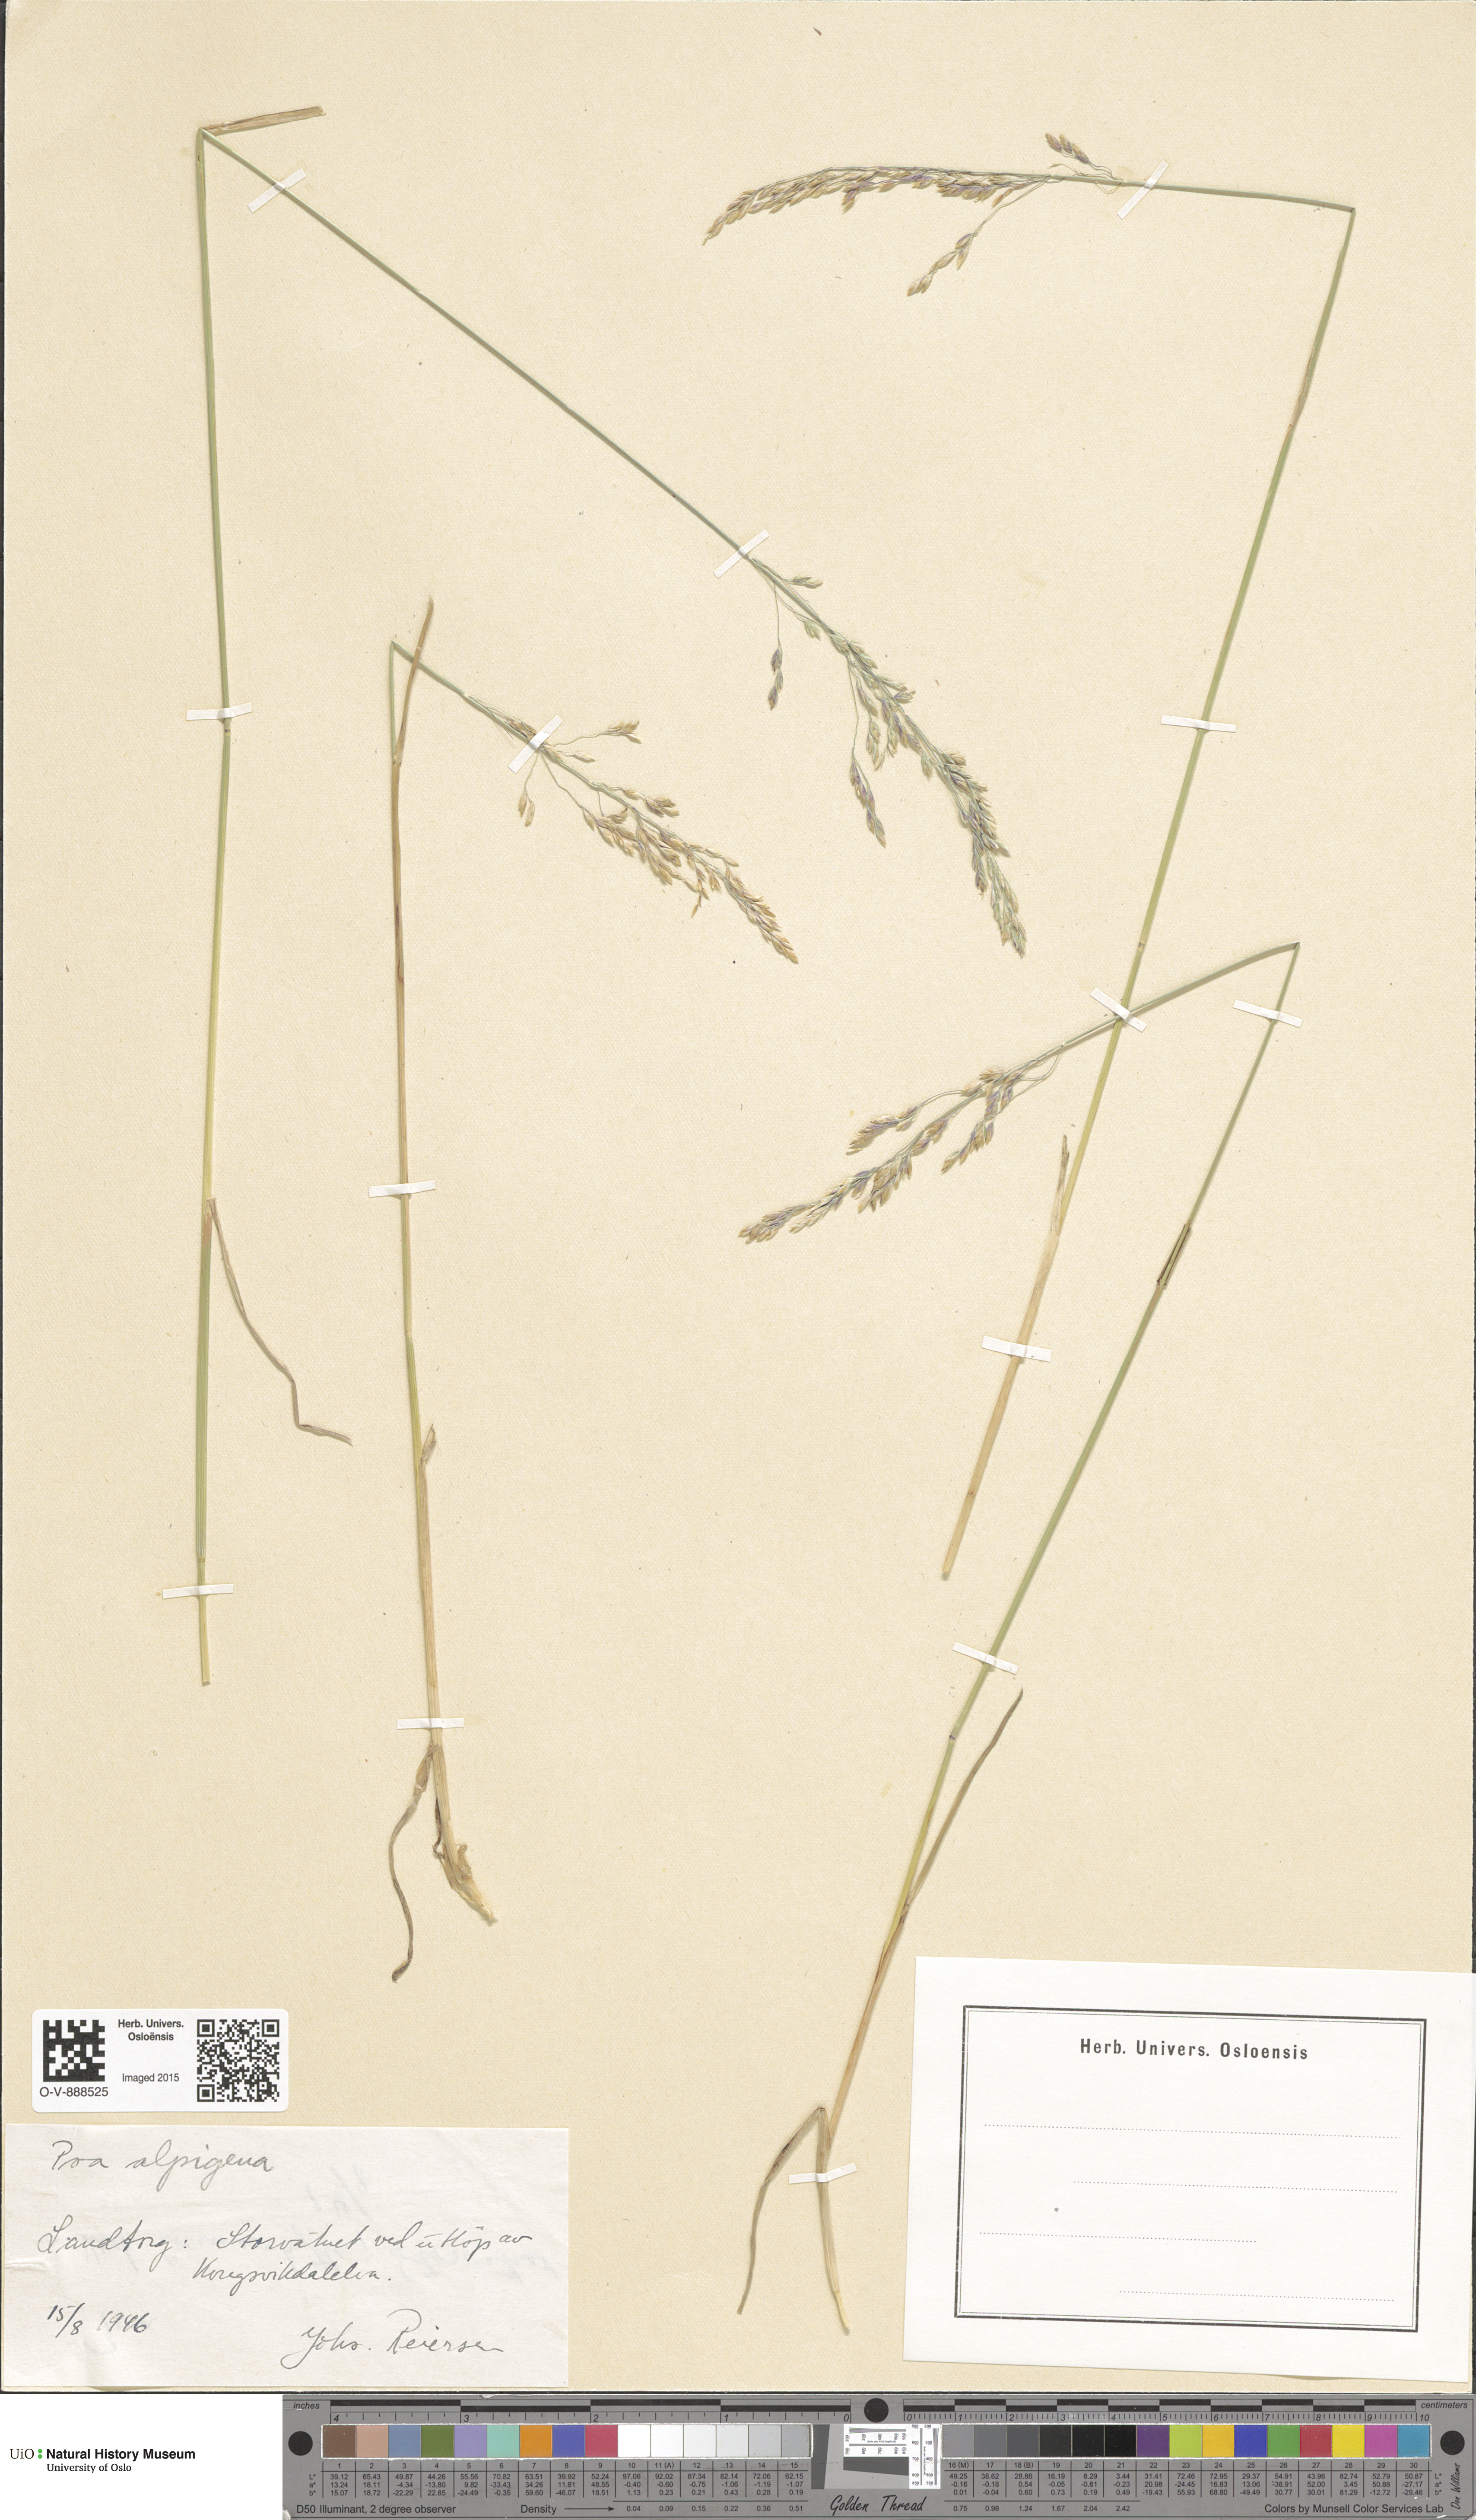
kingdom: Plantae
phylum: Tracheophyta
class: Liliopsida
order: Poales
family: Poaceae
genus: Poa
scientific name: Poa alpigena
